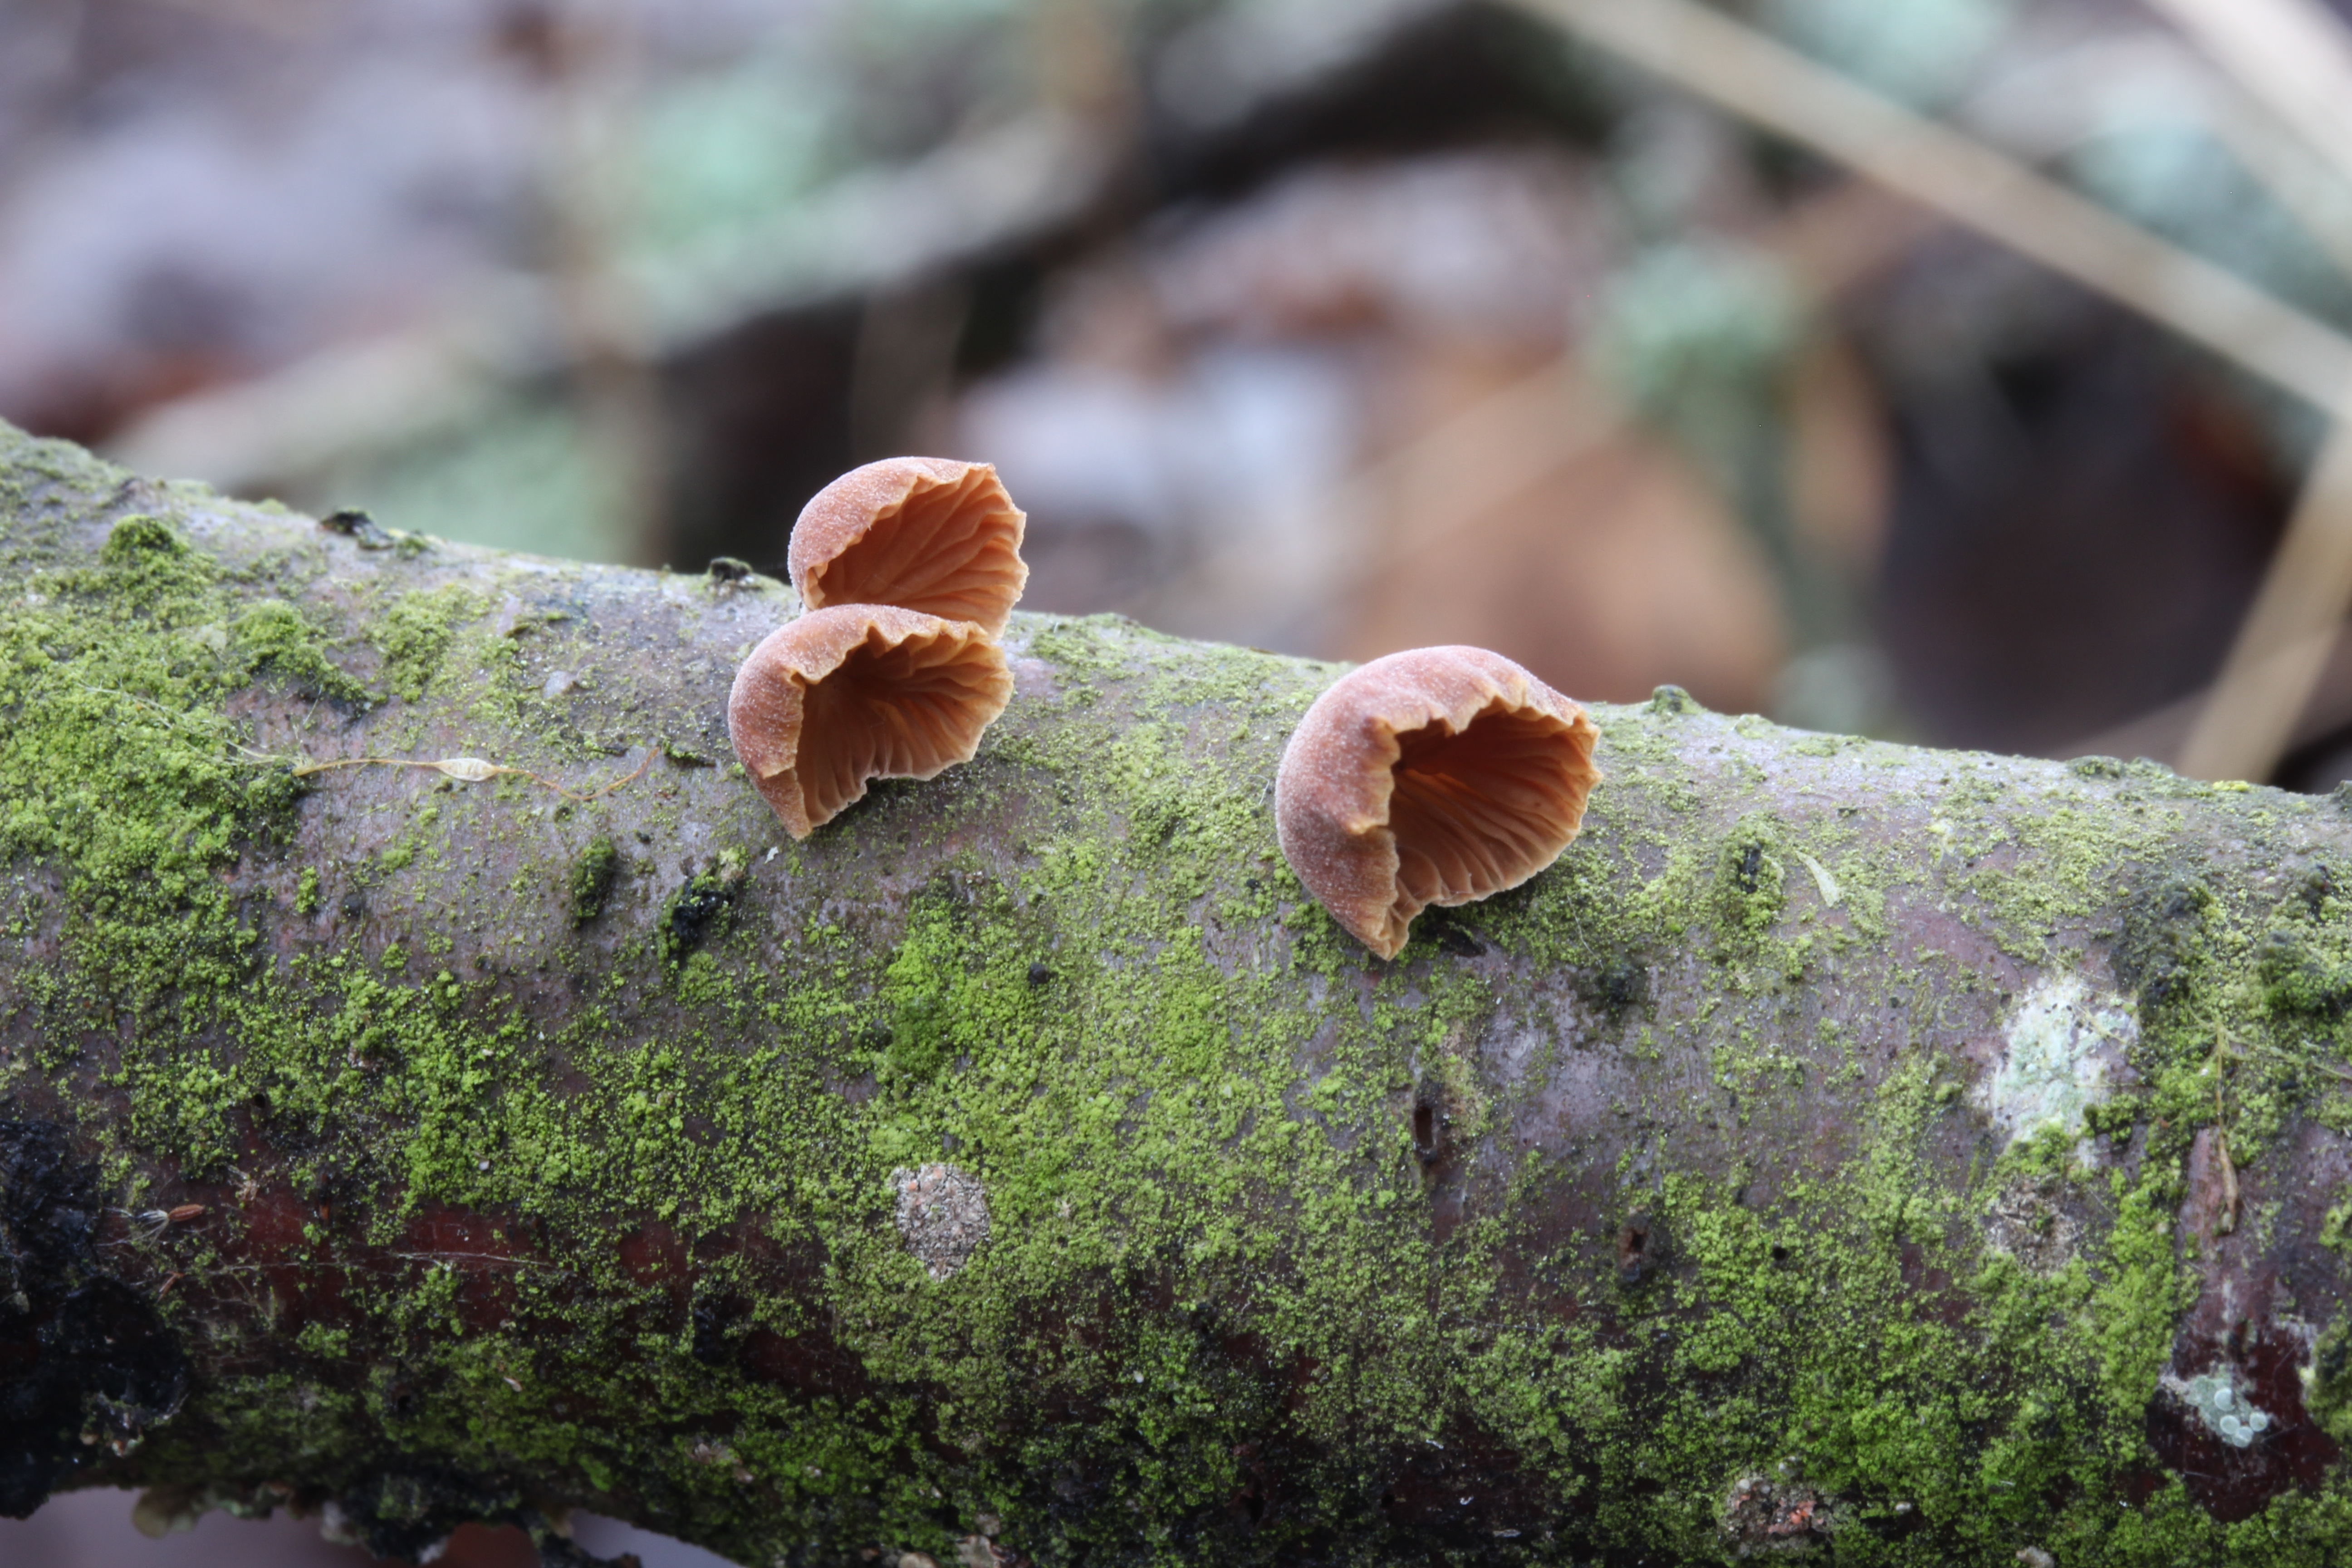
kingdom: Fungi
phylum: Basidiomycota
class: Agaricomycetes
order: Agaricales
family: Mycenaceae
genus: Panellus
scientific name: Panellus ringens
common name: Winter oysterling
